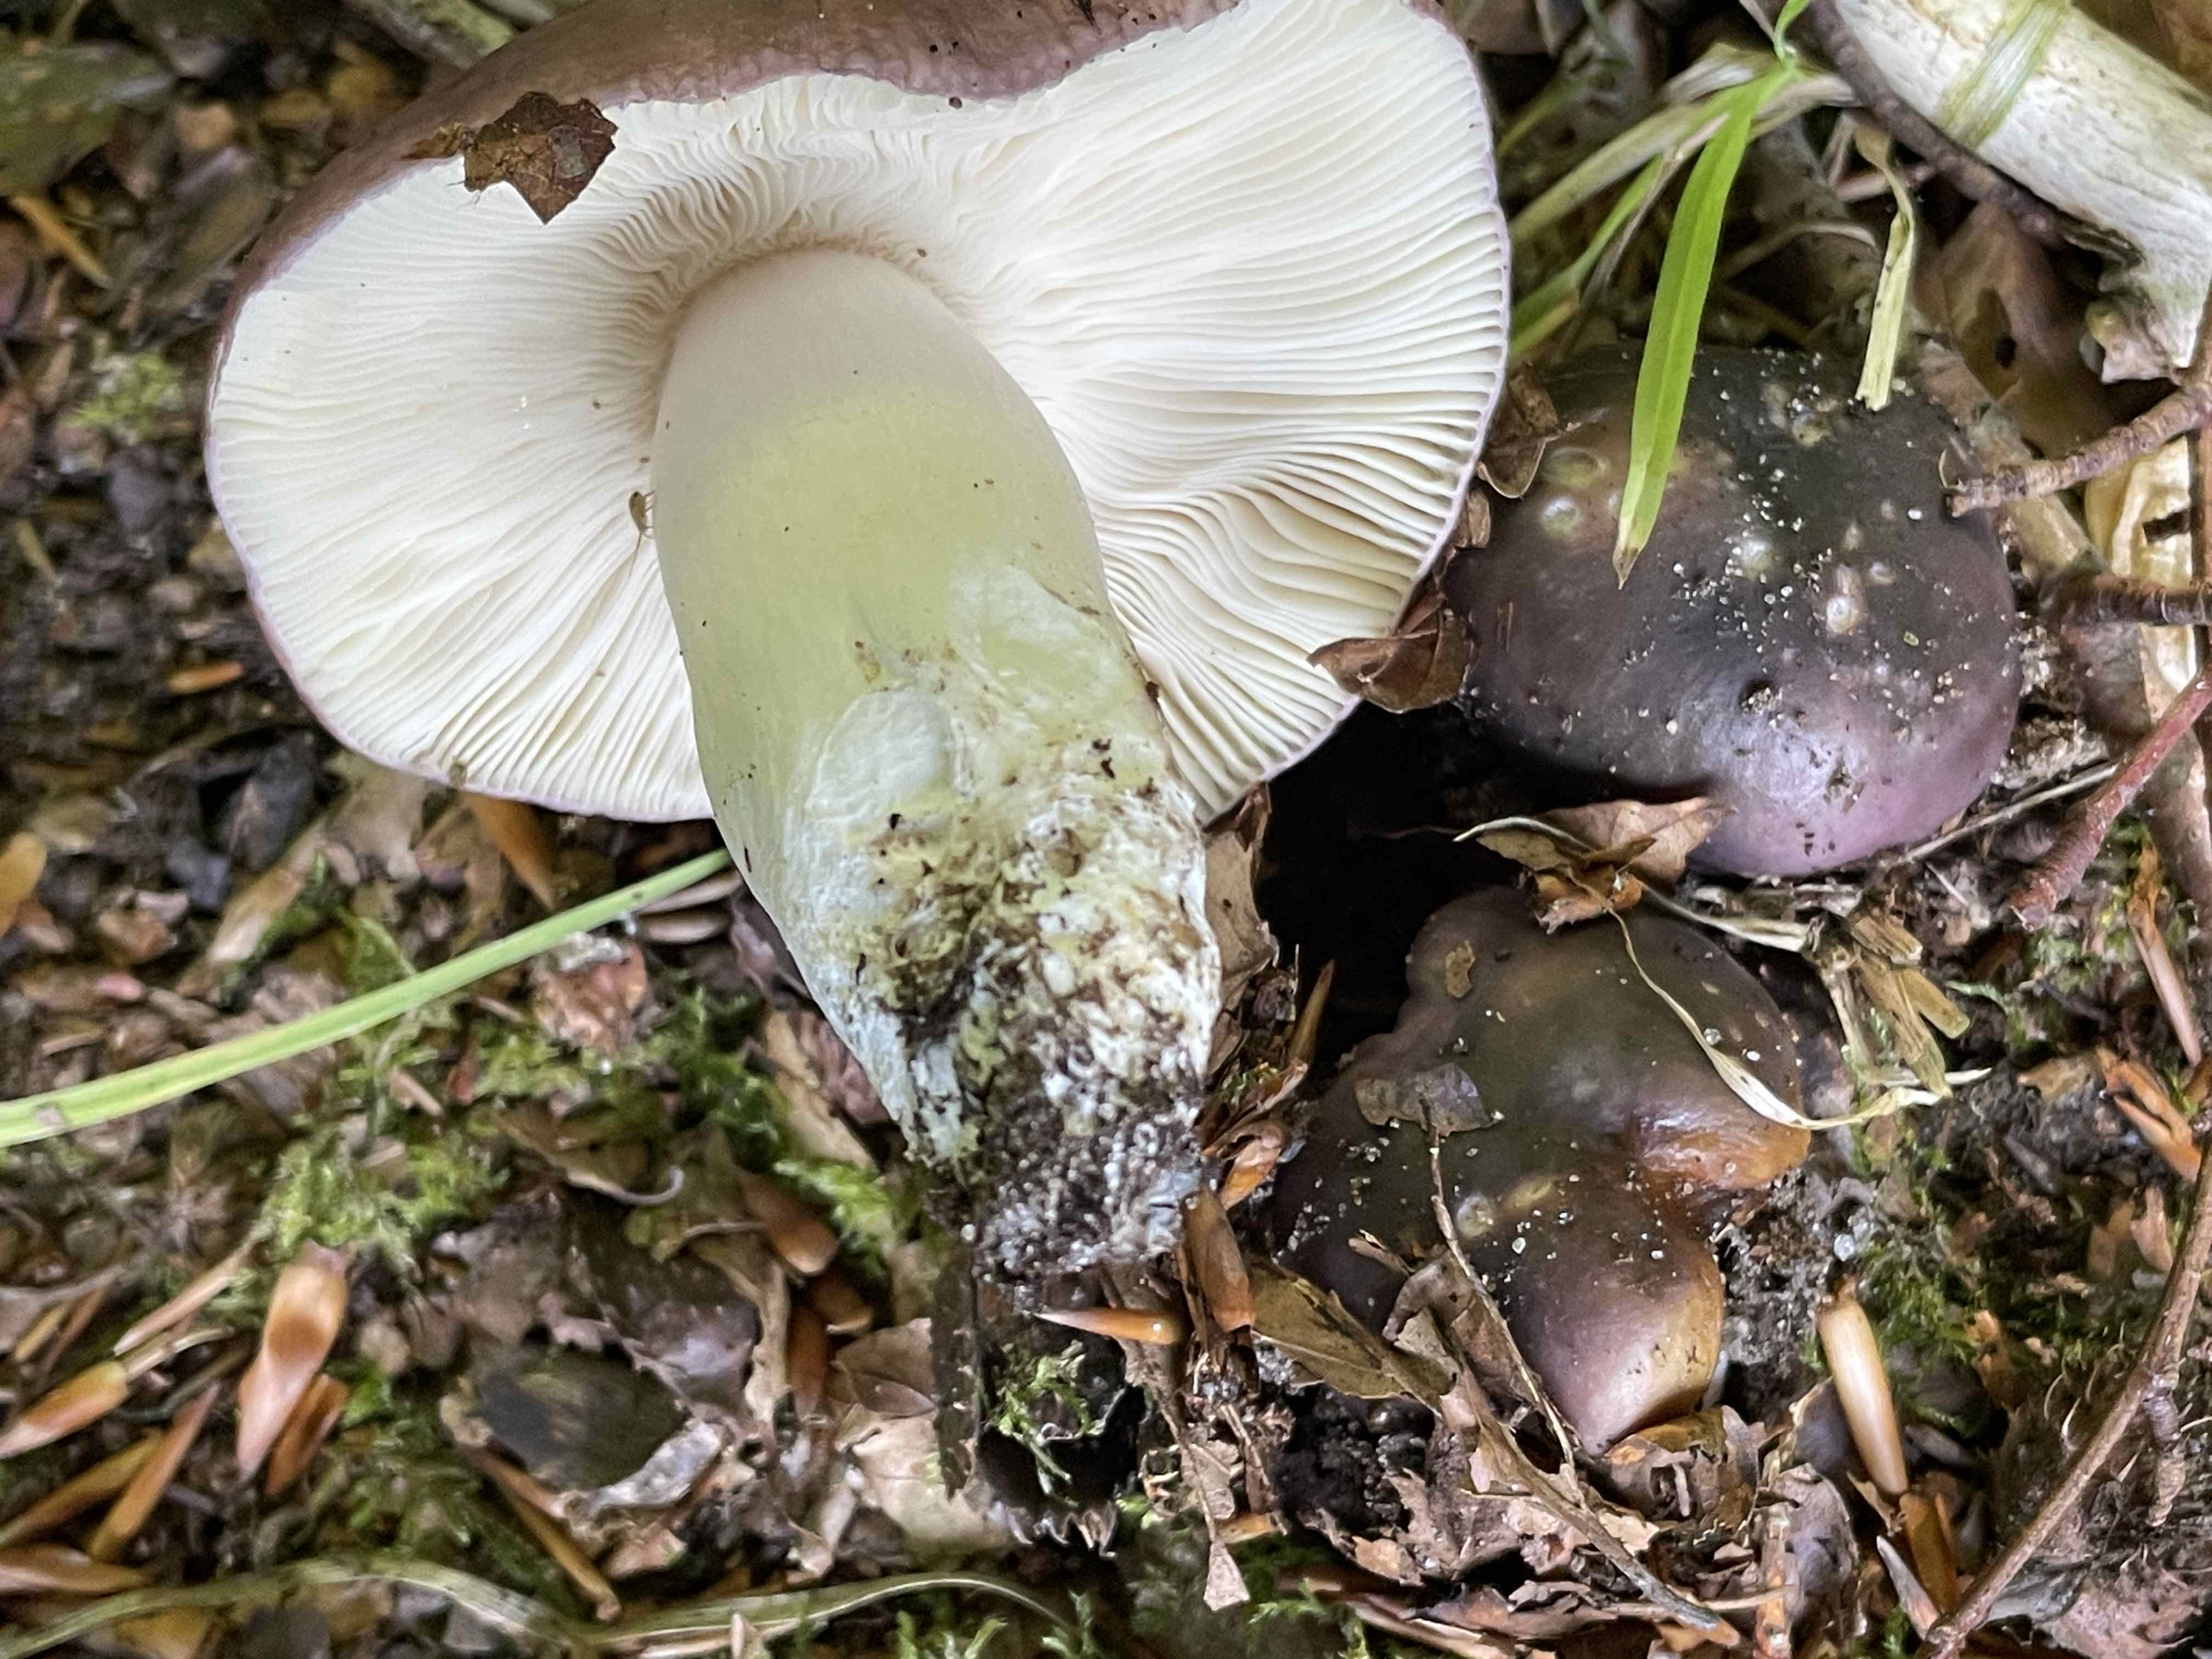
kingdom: Fungi
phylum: Basidiomycota
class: Agaricomycetes
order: Russulales
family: Russulaceae
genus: Russula
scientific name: Russula cyanoxantha
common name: broget skørhat
